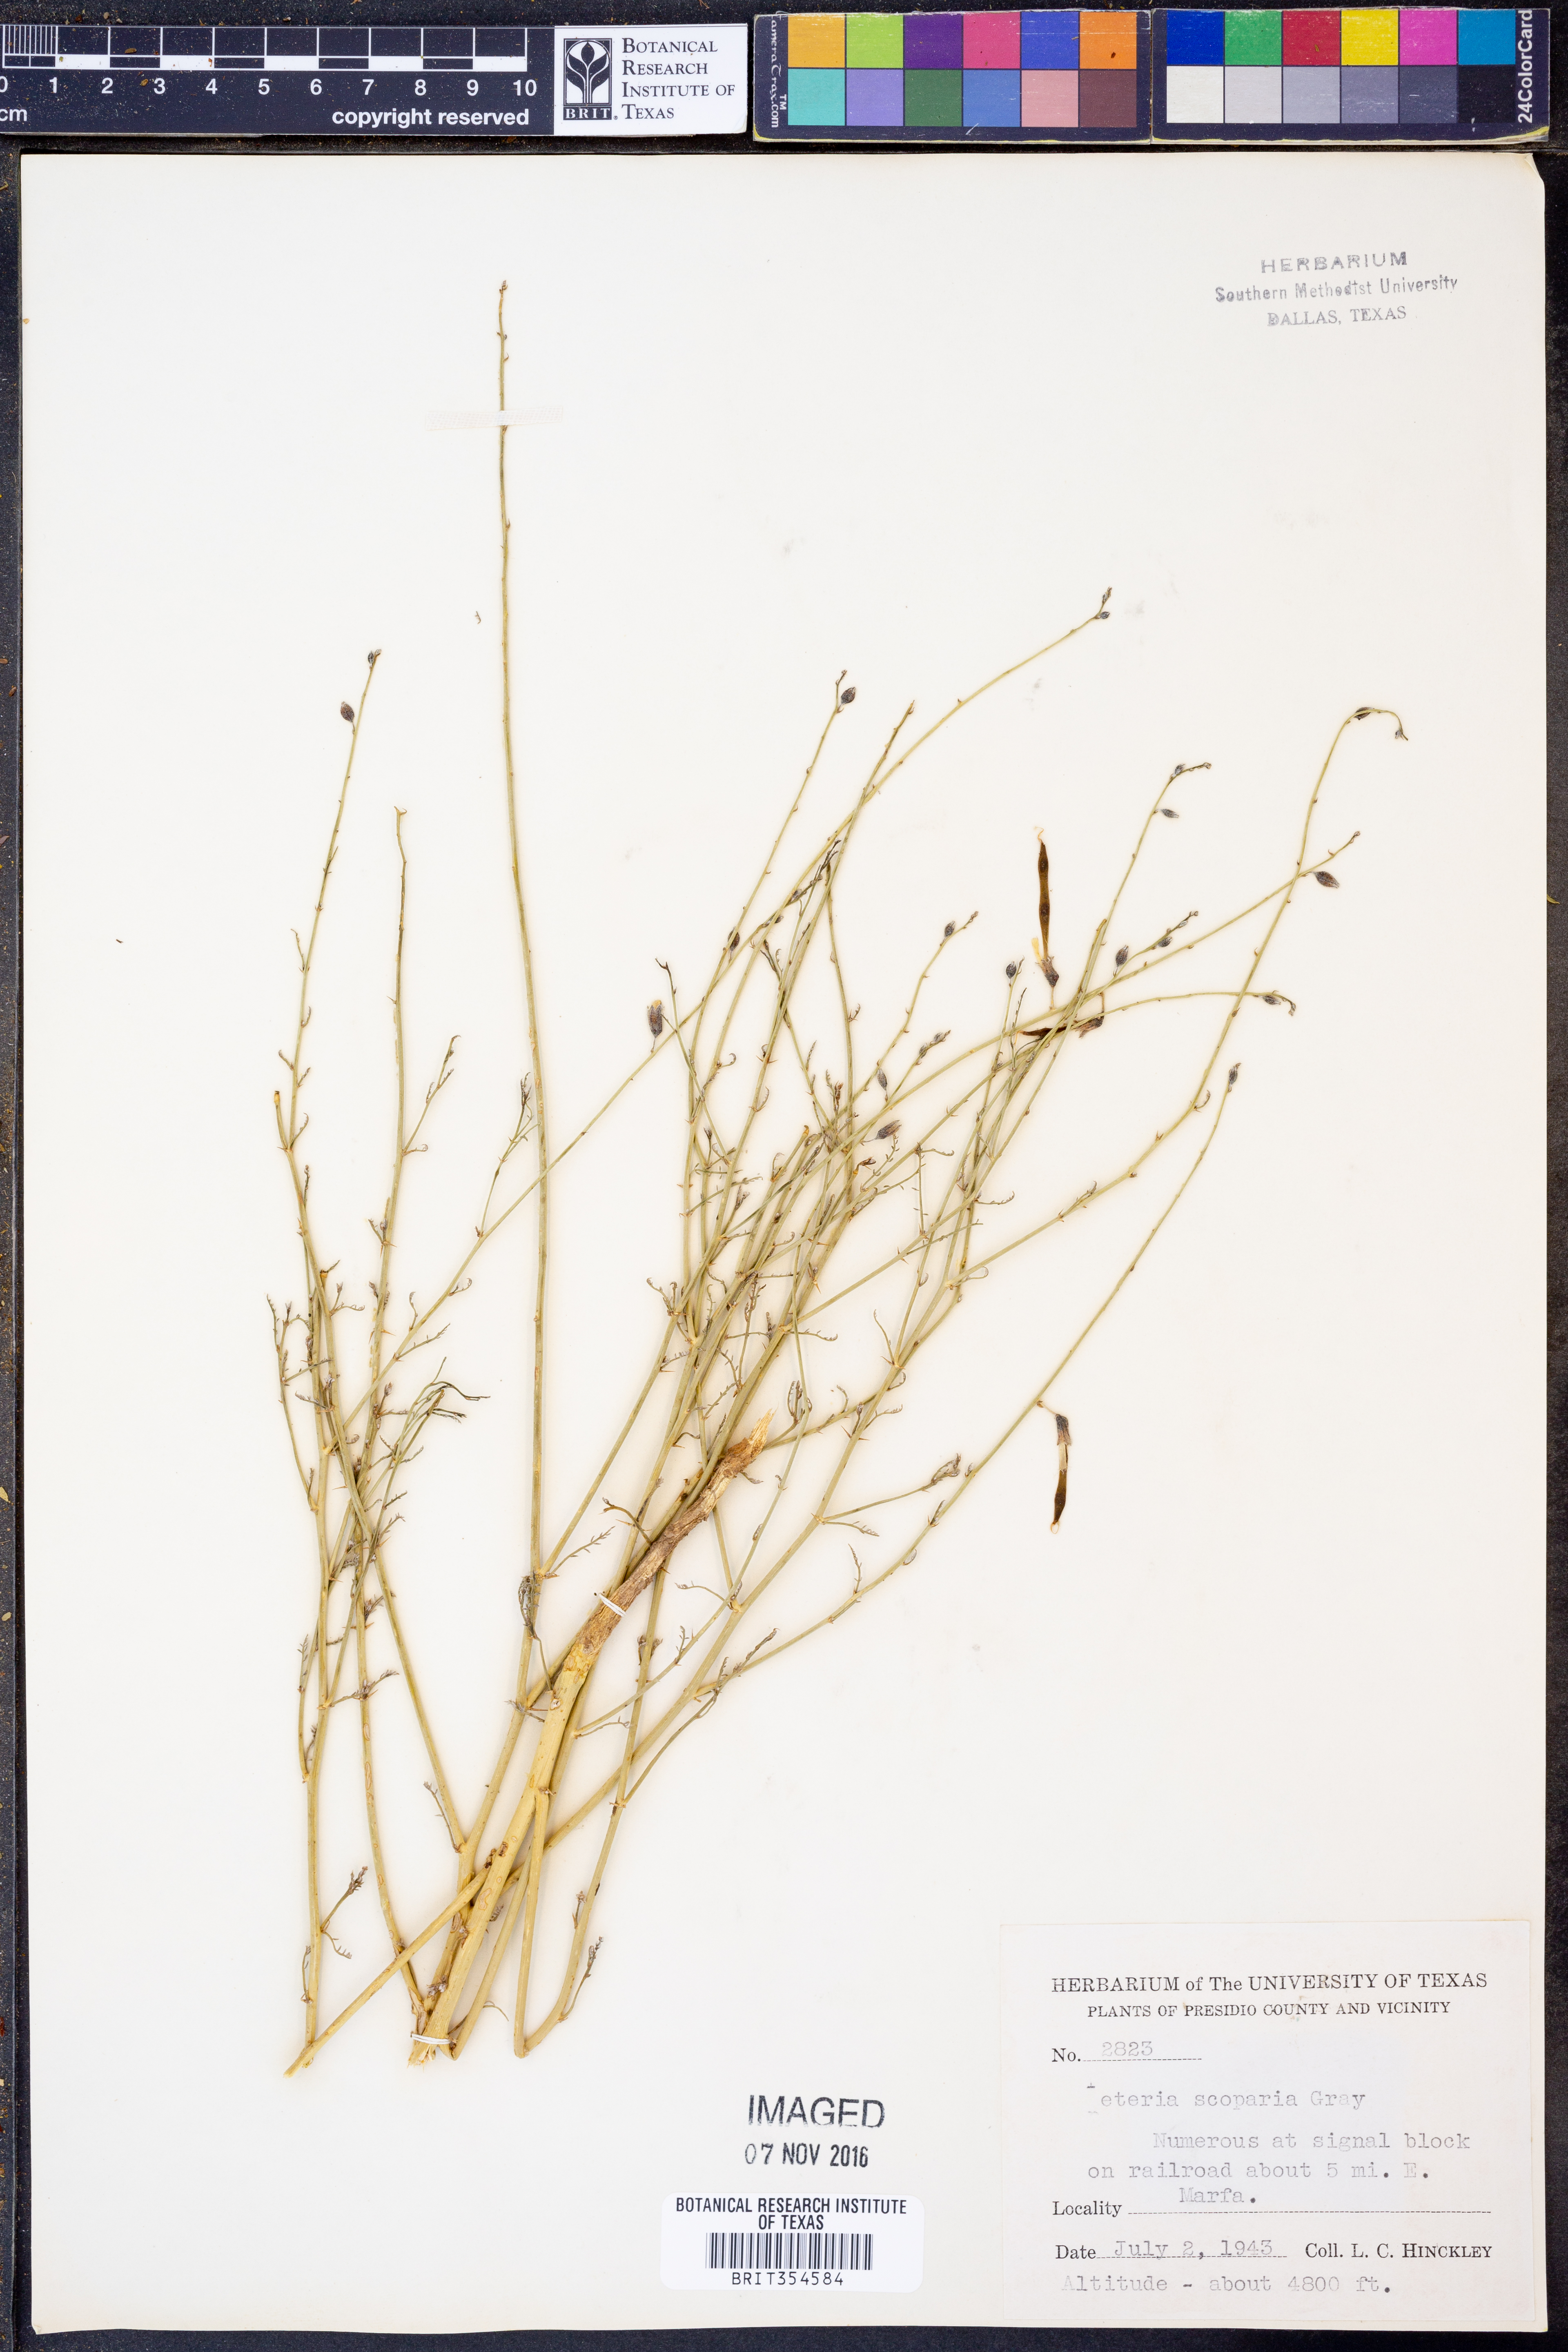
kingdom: Plantae
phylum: Tracheophyta
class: Magnoliopsida
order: Fabales
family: Fabaceae
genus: Peteria
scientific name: Peteria scoparia
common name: Camote del monte
